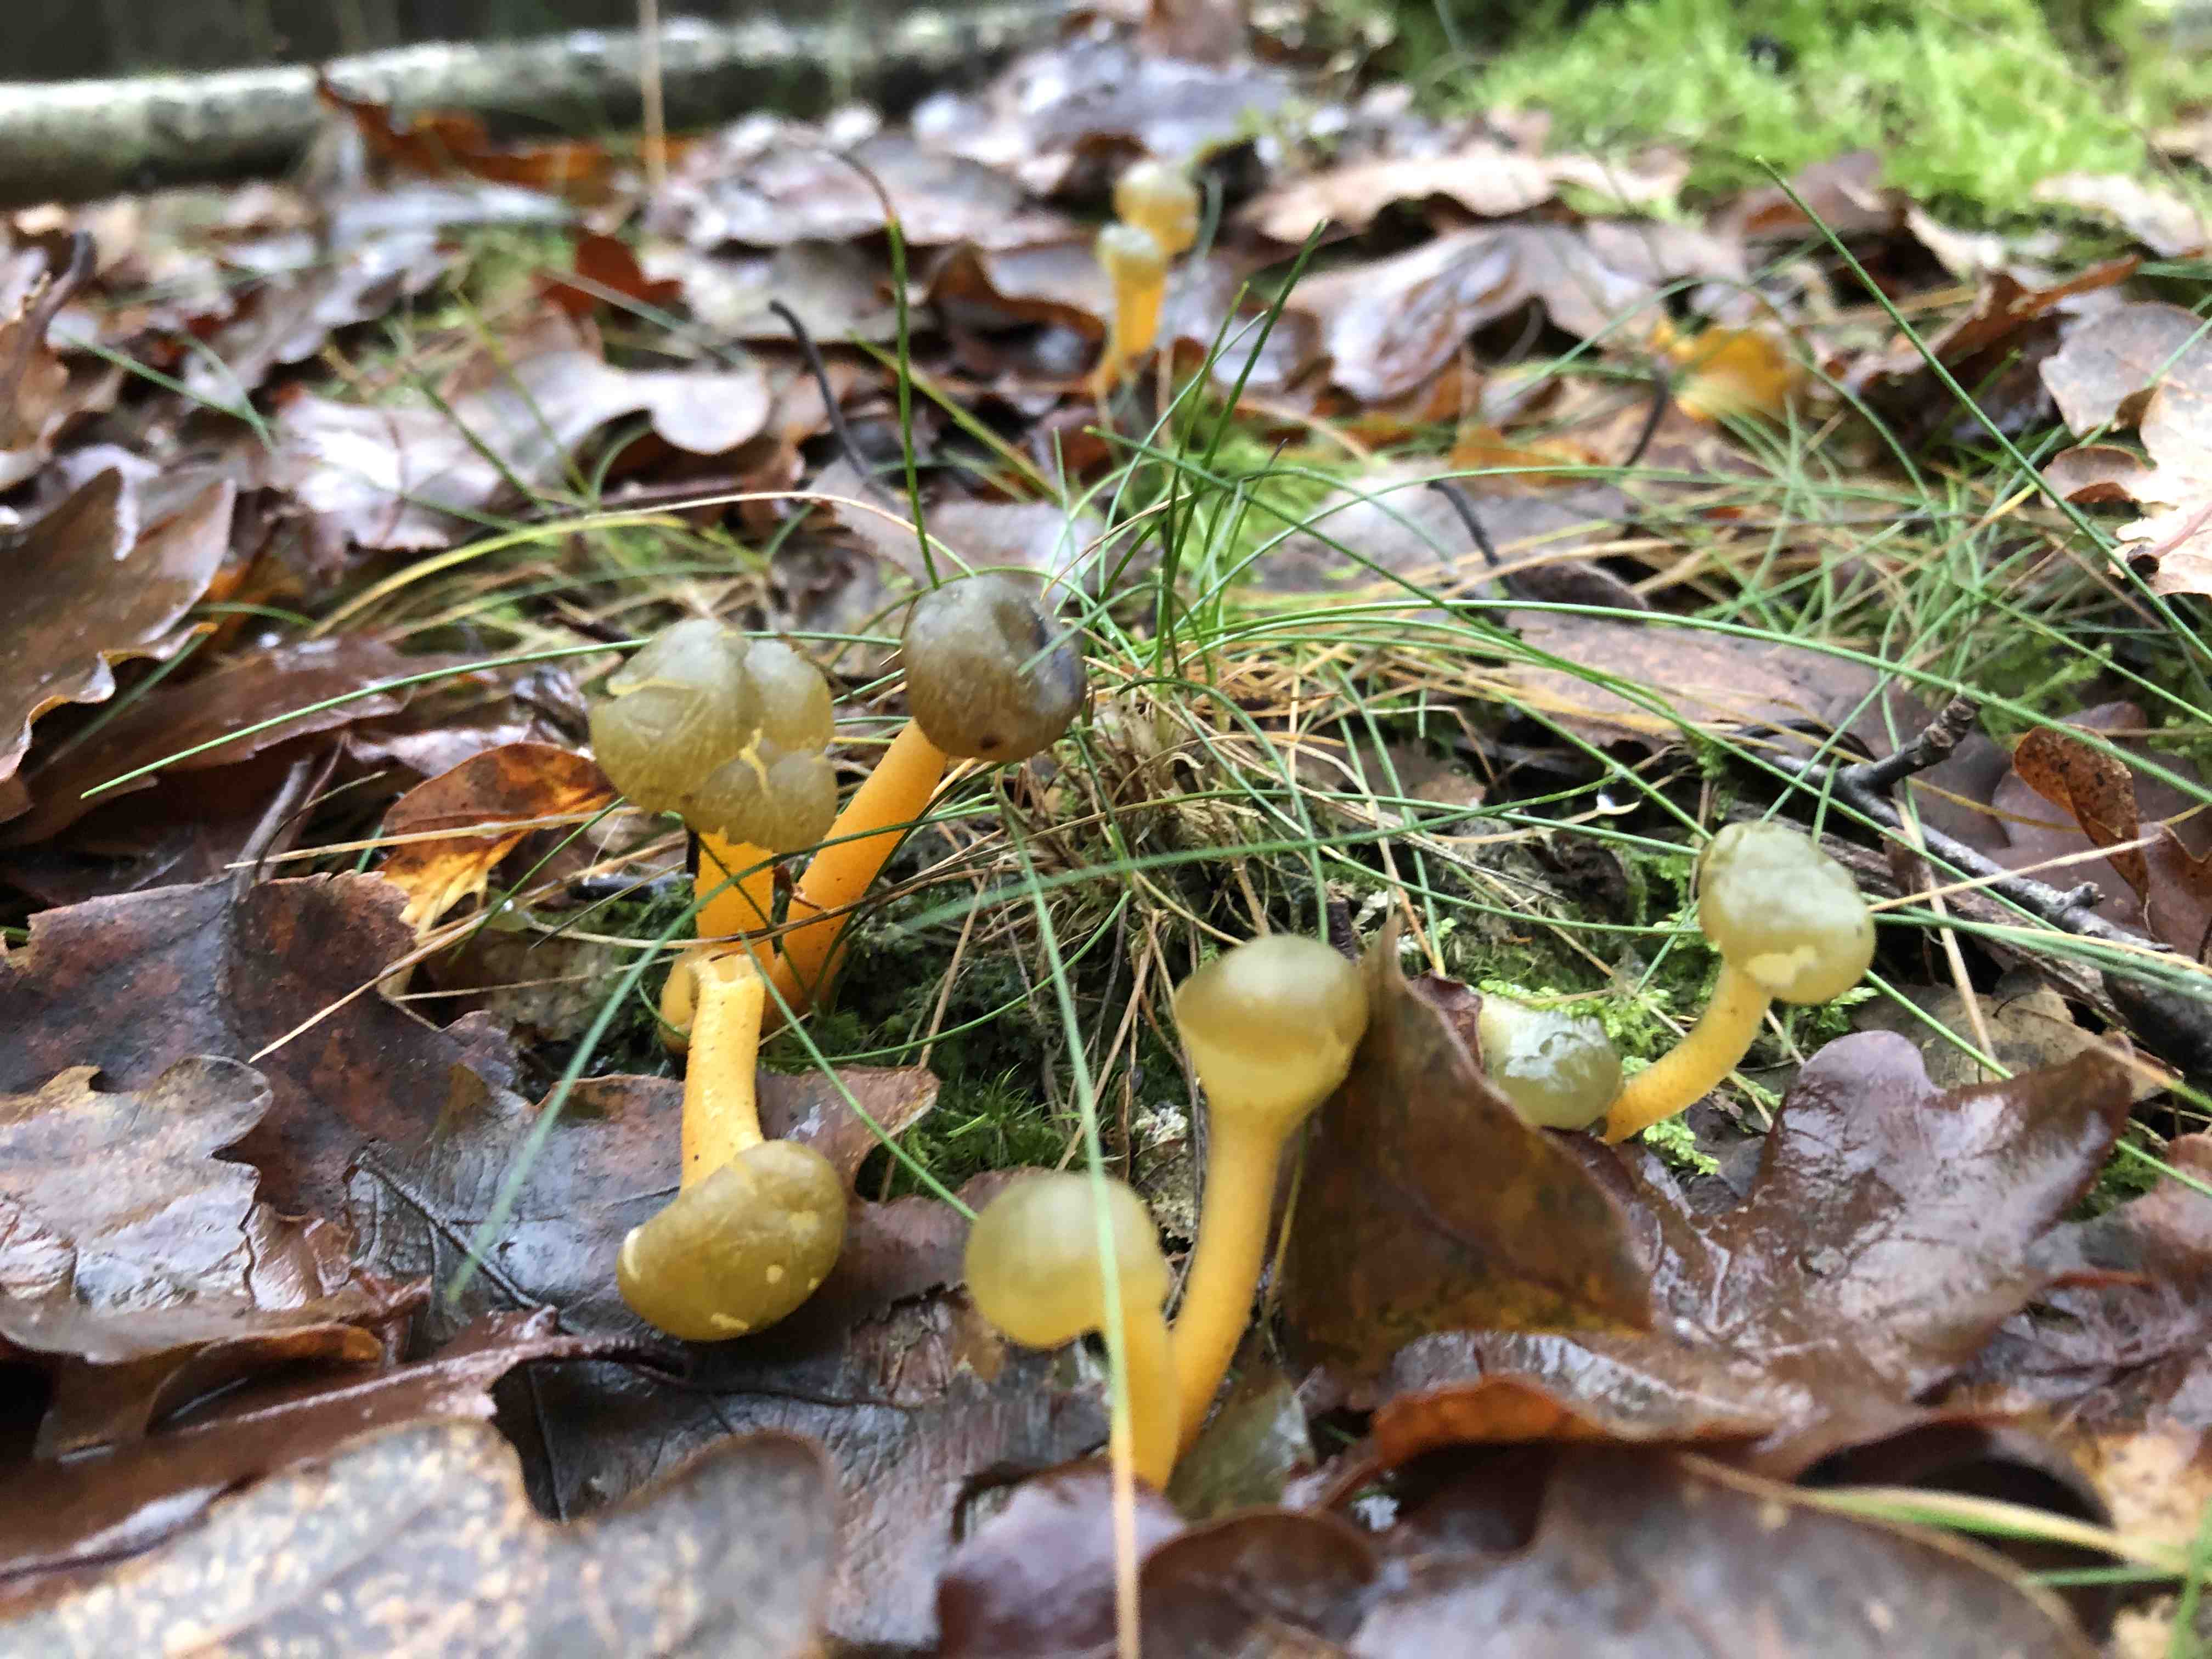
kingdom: Fungi
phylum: Ascomycota
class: Leotiomycetes
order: Leotiales
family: Leotiaceae
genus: Leotia
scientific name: Leotia lubrica
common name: ravsvamp
